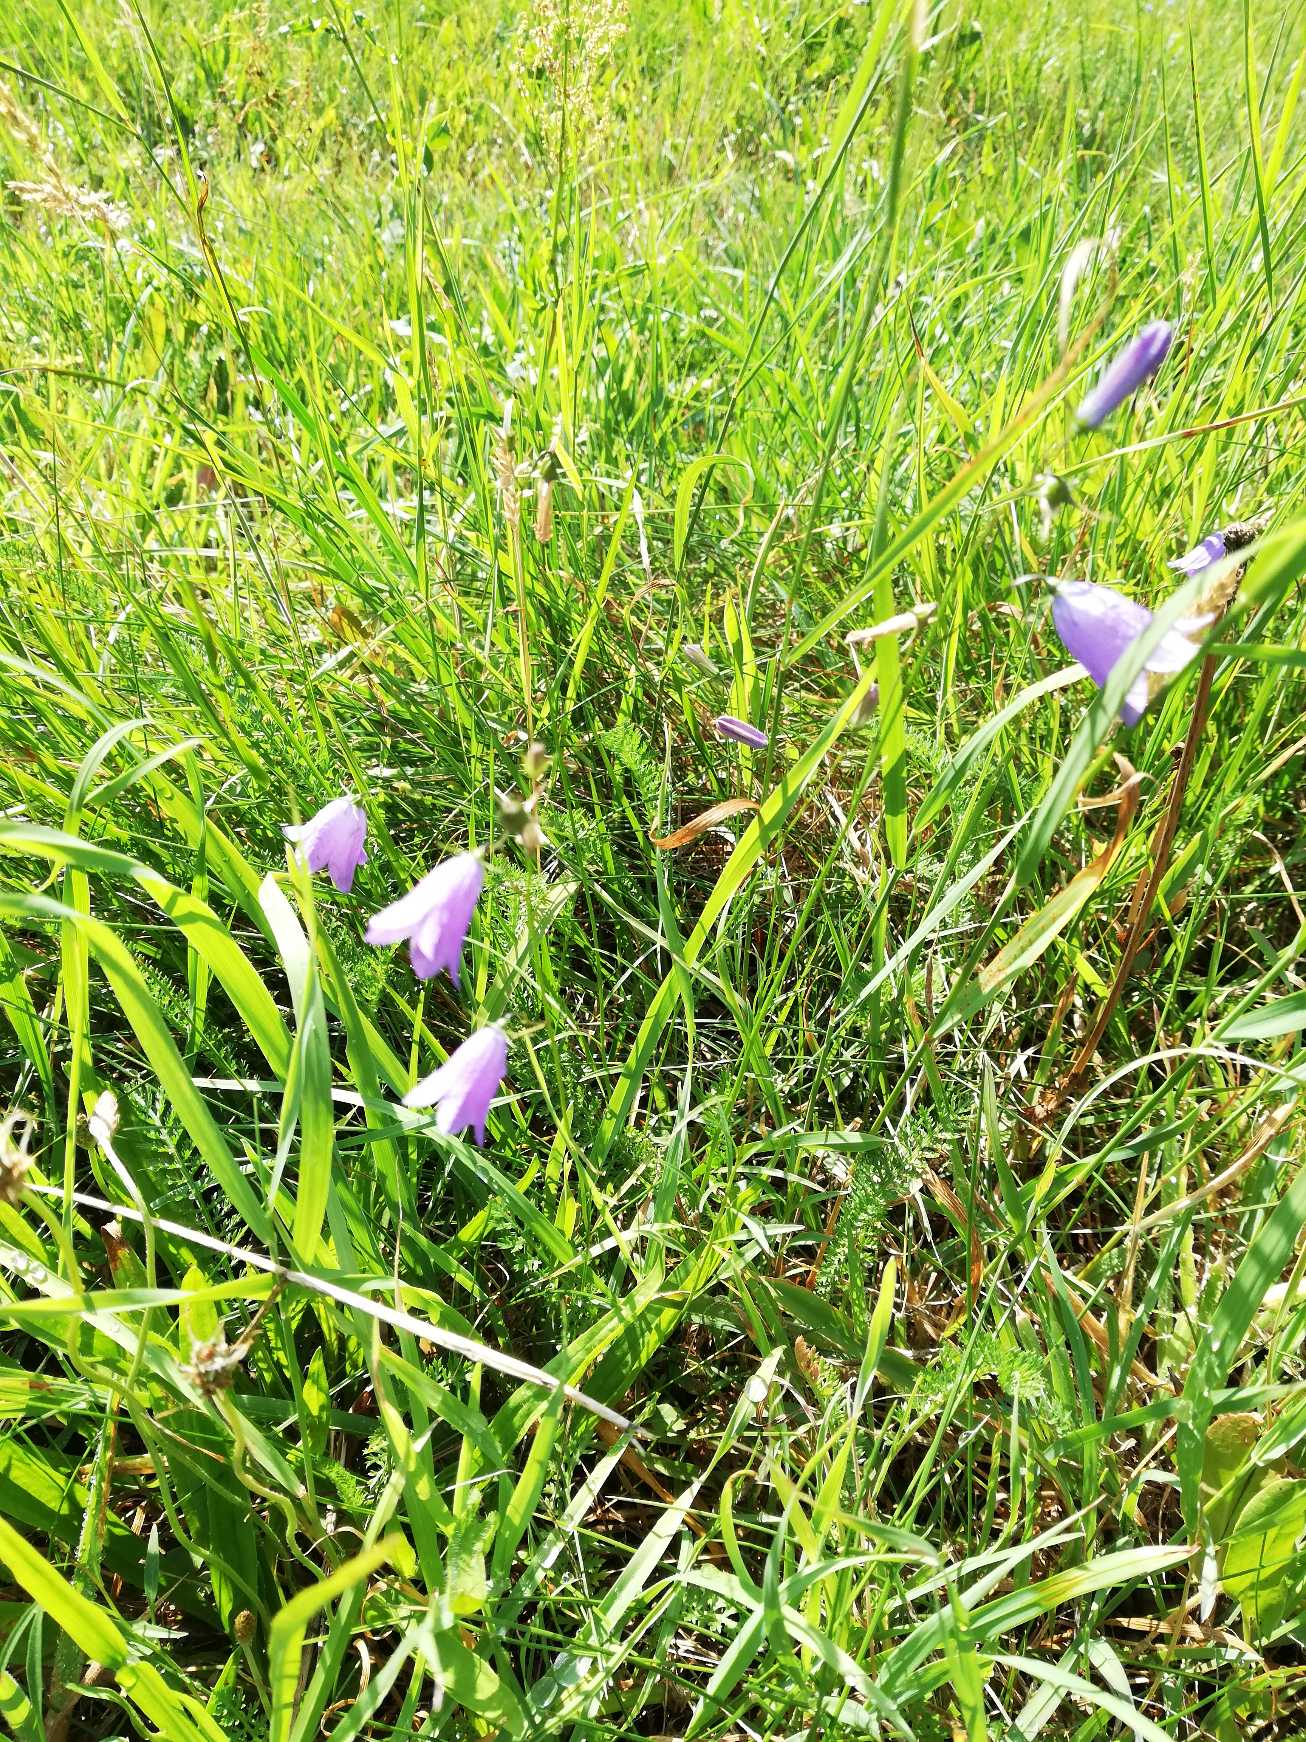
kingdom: Plantae
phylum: Tracheophyta
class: Magnoliopsida
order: Asterales
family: Campanulaceae
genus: Campanula
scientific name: Campanula rotundifolia
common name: Liden klokke
